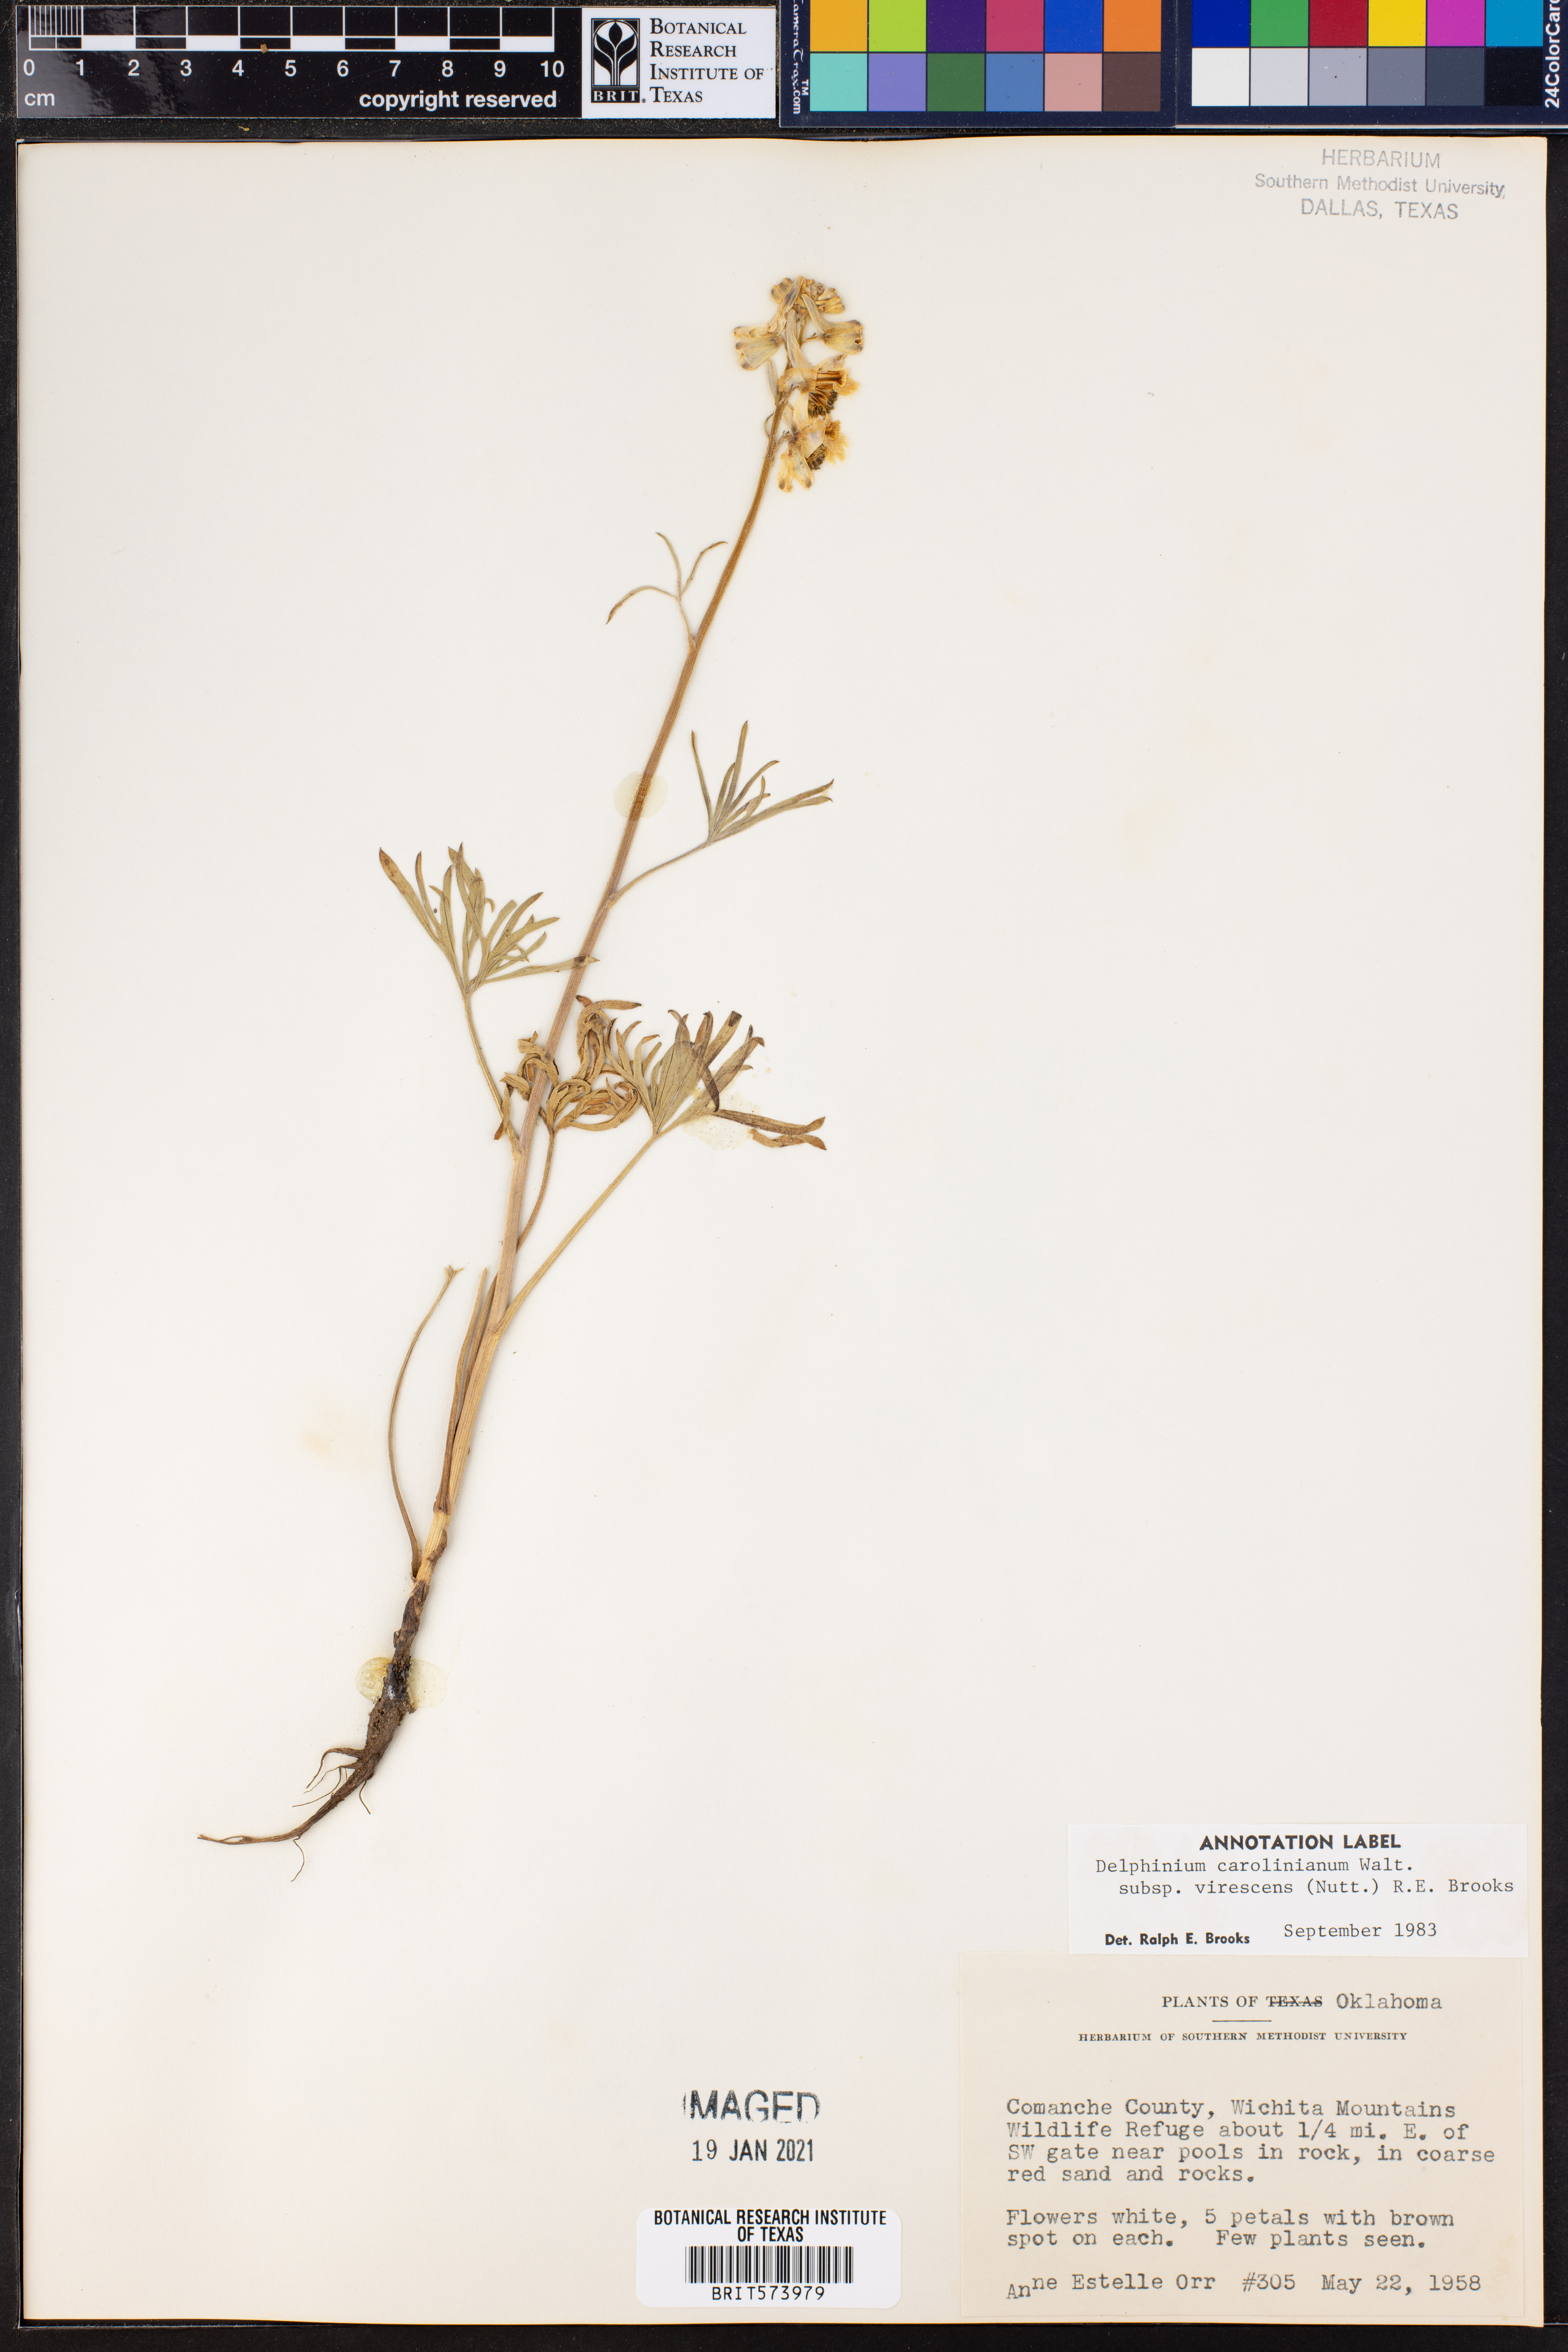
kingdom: Plantae
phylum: Tracheophyta
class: Magnoliopsida
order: Ranunculales
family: Ranunculaceae
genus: Delphinium
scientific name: Delphinium carolinianum
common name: Carolina larkspur
